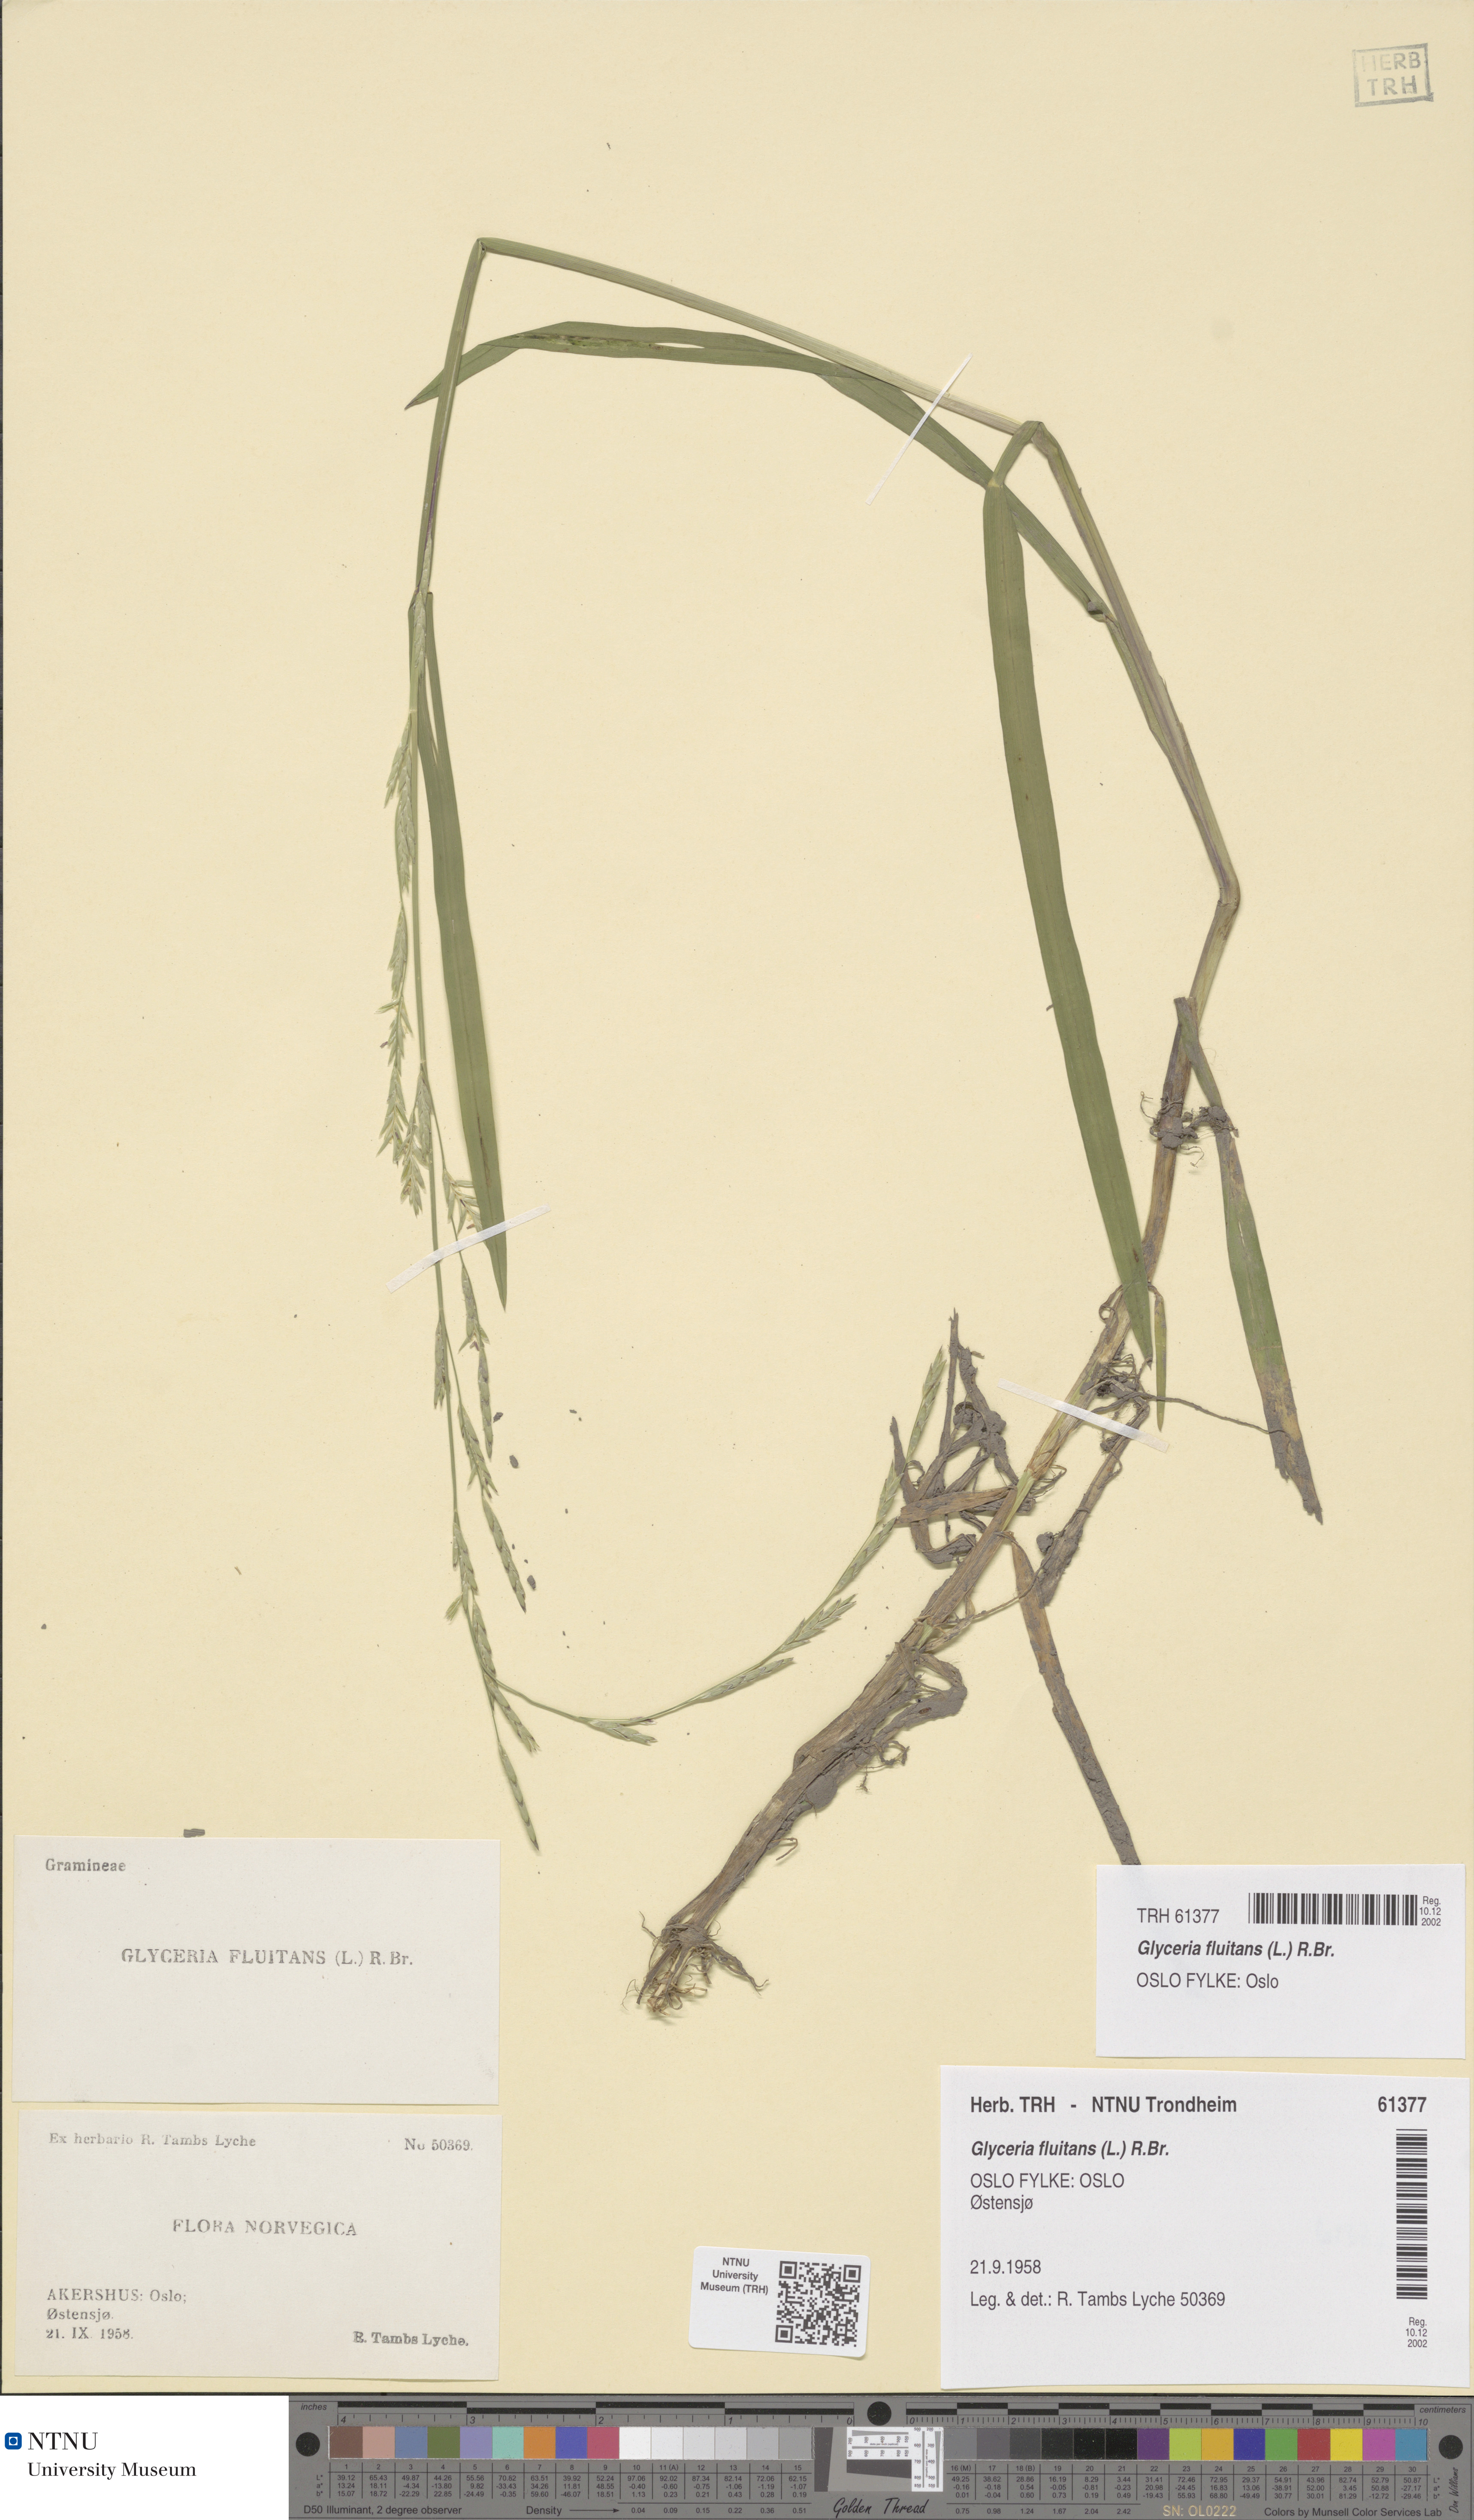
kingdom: Plantae
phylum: Tracheophyta
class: Liliopsida
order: Poales
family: Poaceae
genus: Glyceria
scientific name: Glyceria fluitans
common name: Floating sweet-grass
